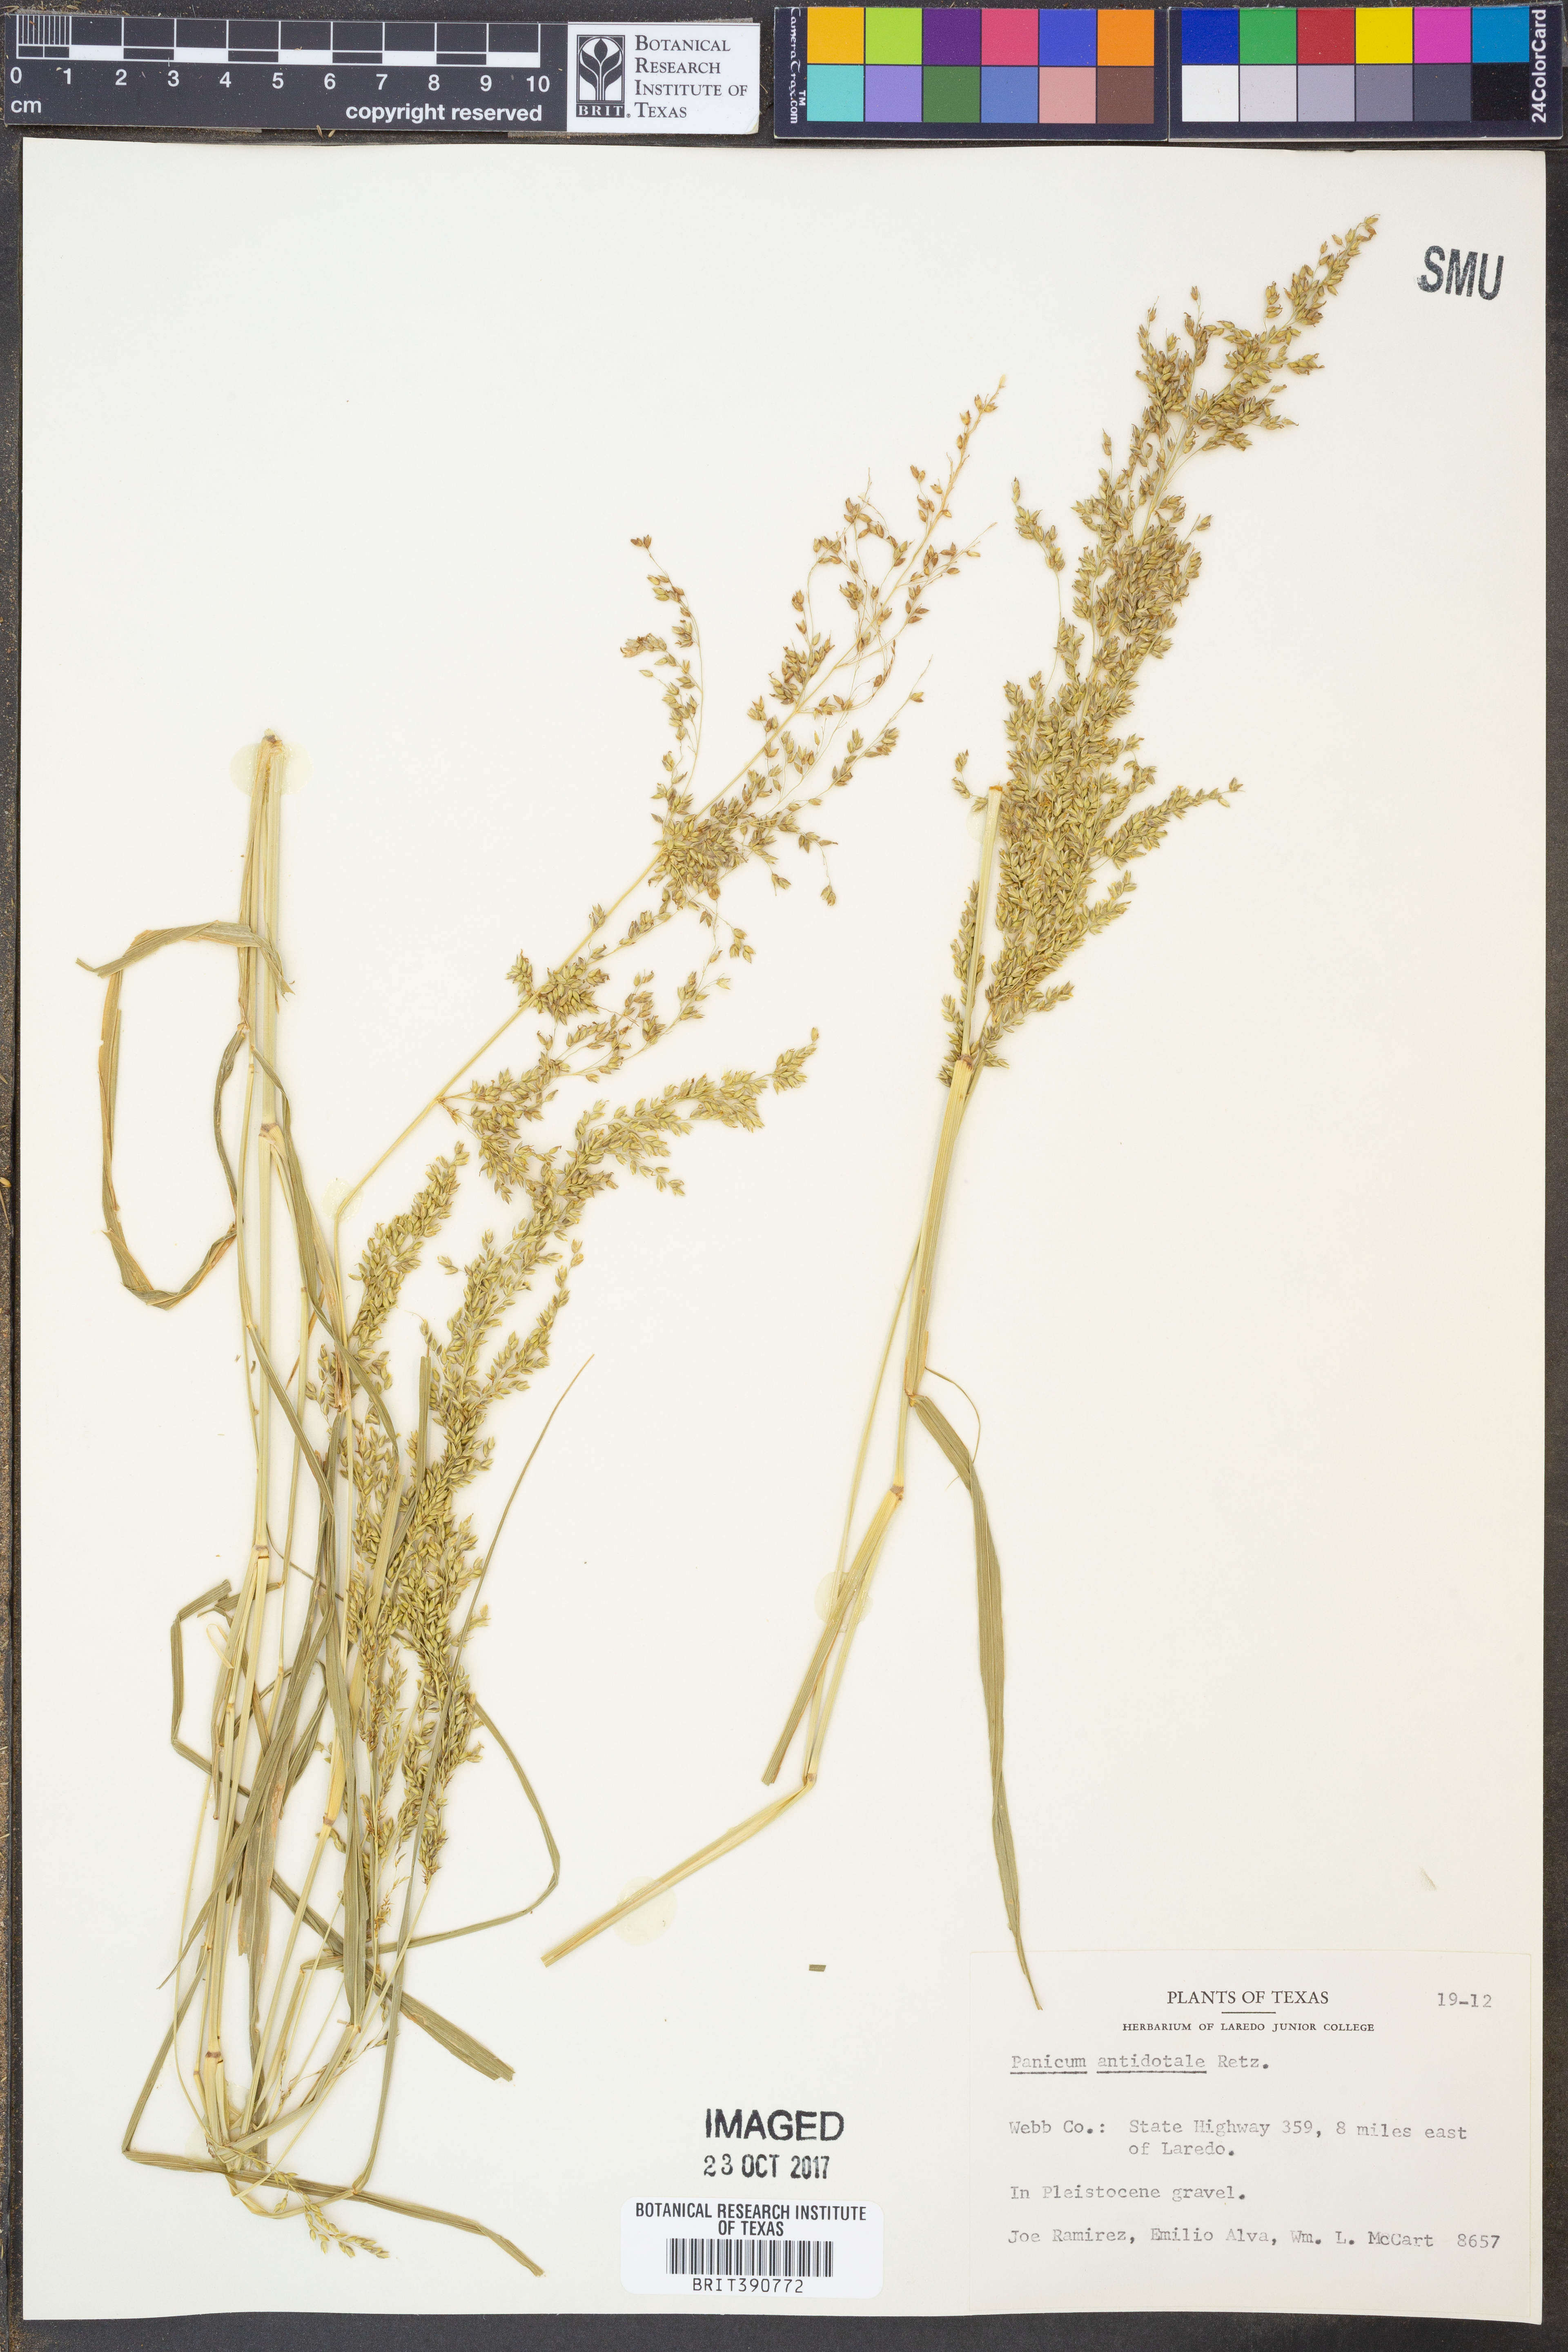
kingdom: Plantae
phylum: Tracheophyta
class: Liliopsida
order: Poales
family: Poaceae
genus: Panicum
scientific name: Panicum antidotale
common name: Blue panicum
